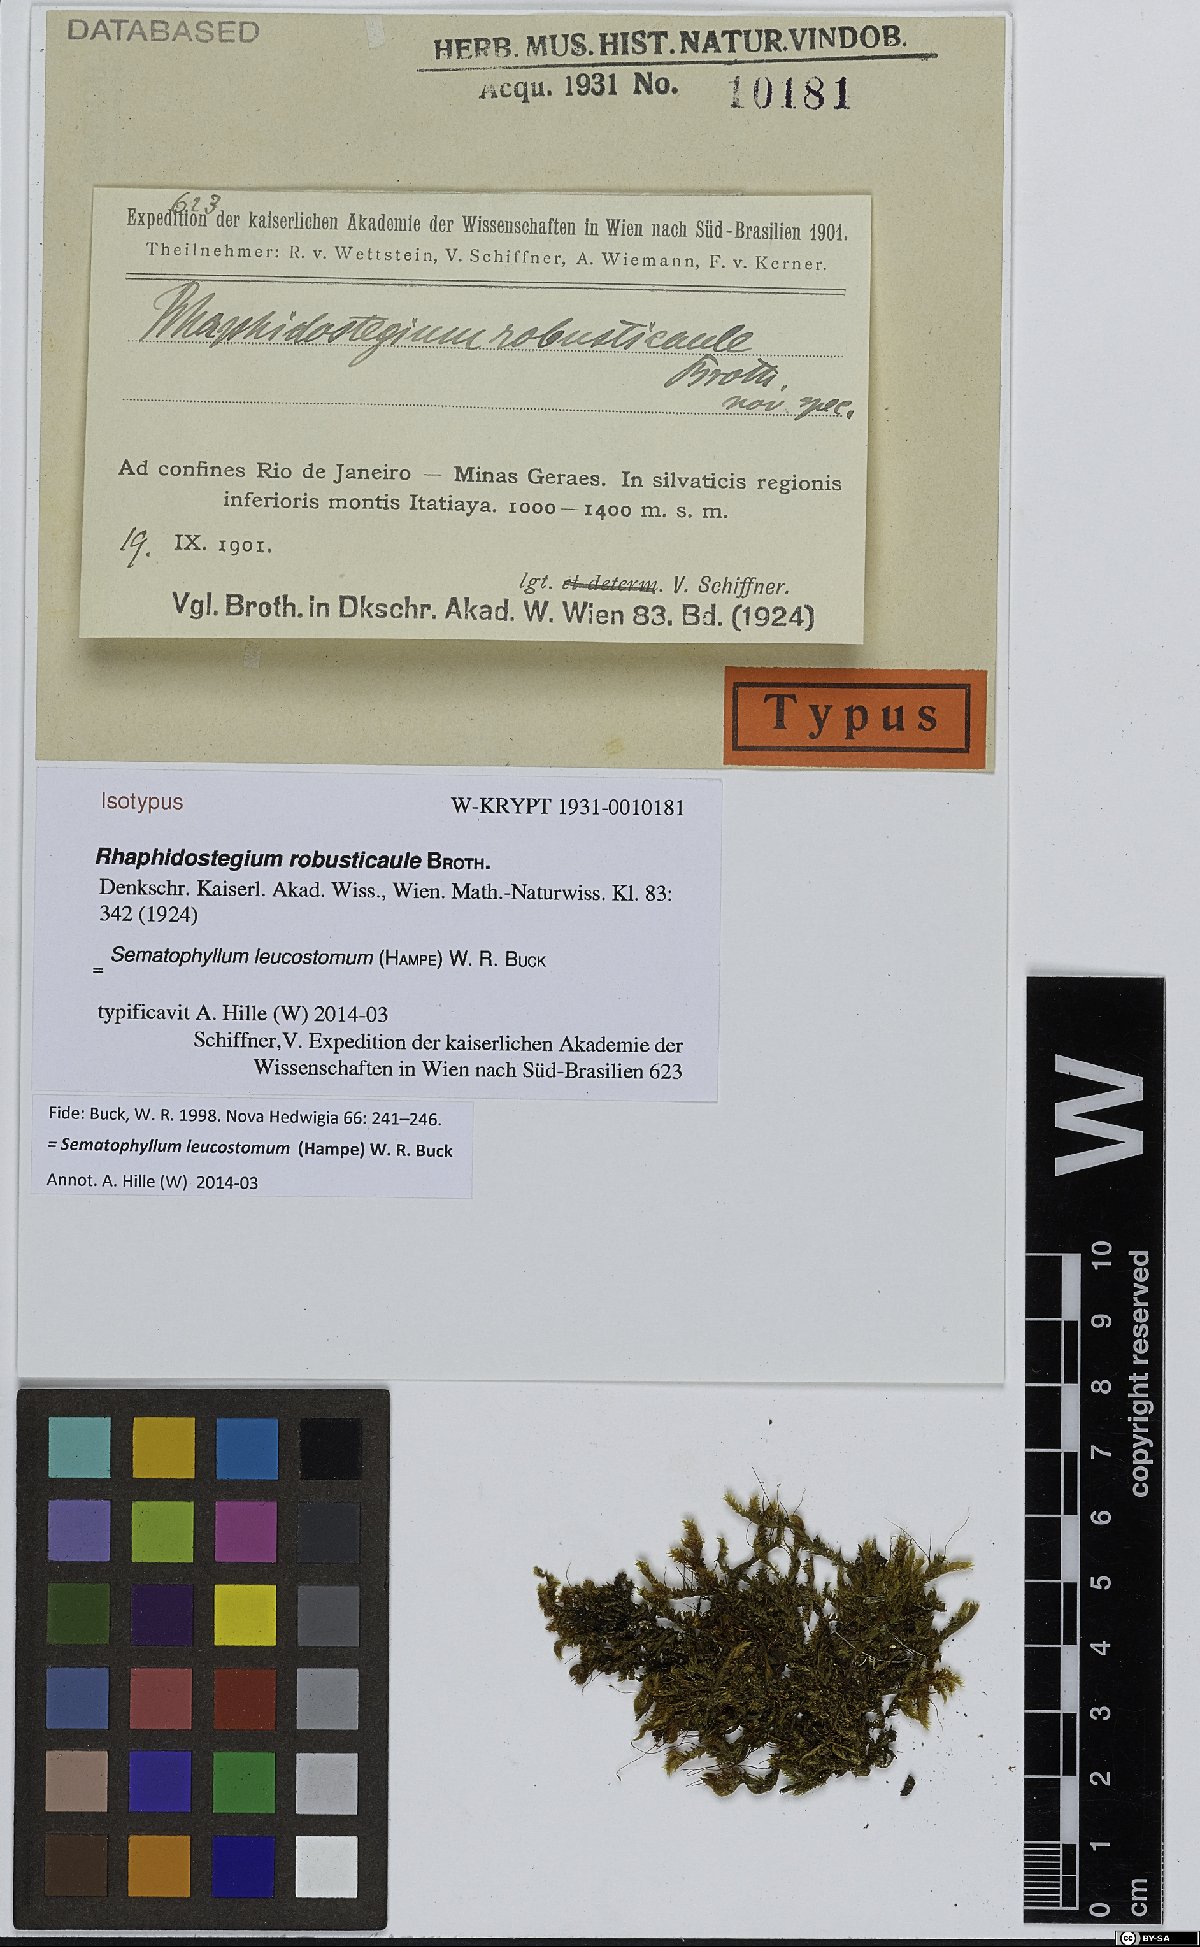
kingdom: Plantae
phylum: Bryophyta
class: Bryopsida
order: Hypnales
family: Sematophyllaceae
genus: Sematophyllum
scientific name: Sematophyllum leucostomum
